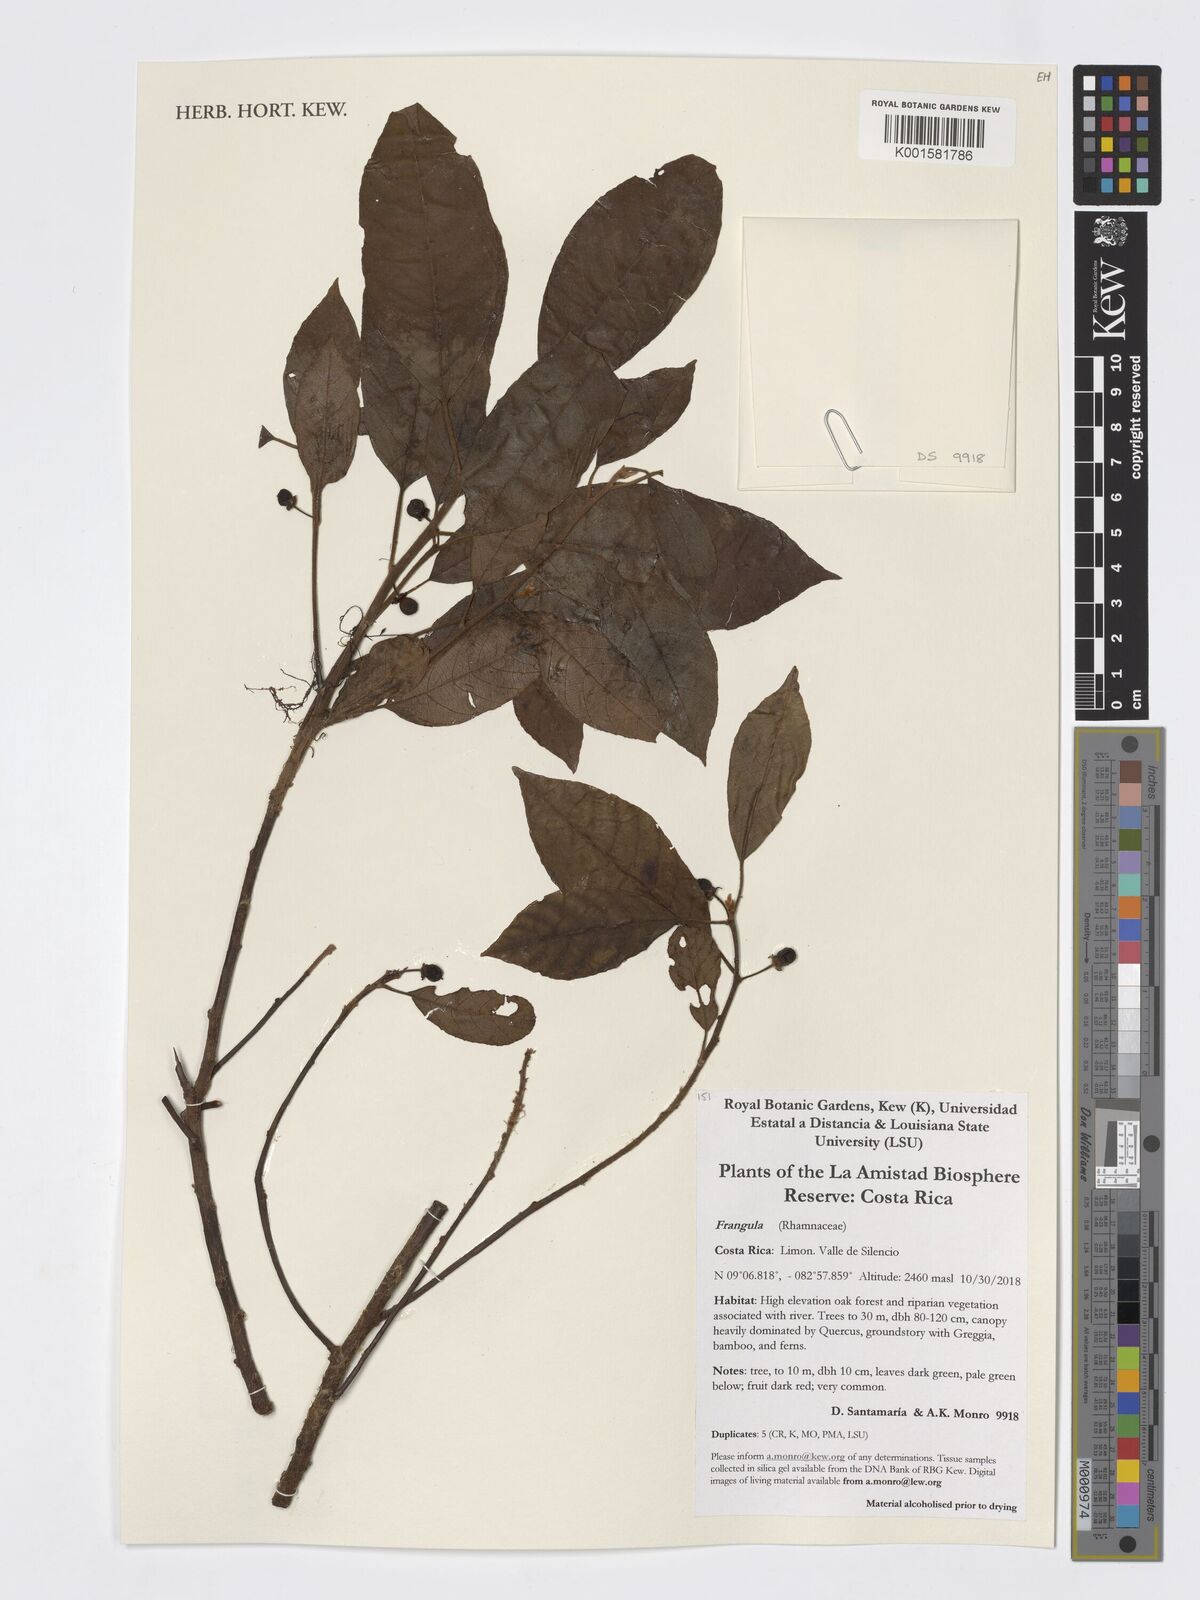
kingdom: Plantae
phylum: Tracheophyta
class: Magnoliopsida
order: Rosales
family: Rhamnaceae
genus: Frangula
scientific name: Frangula
